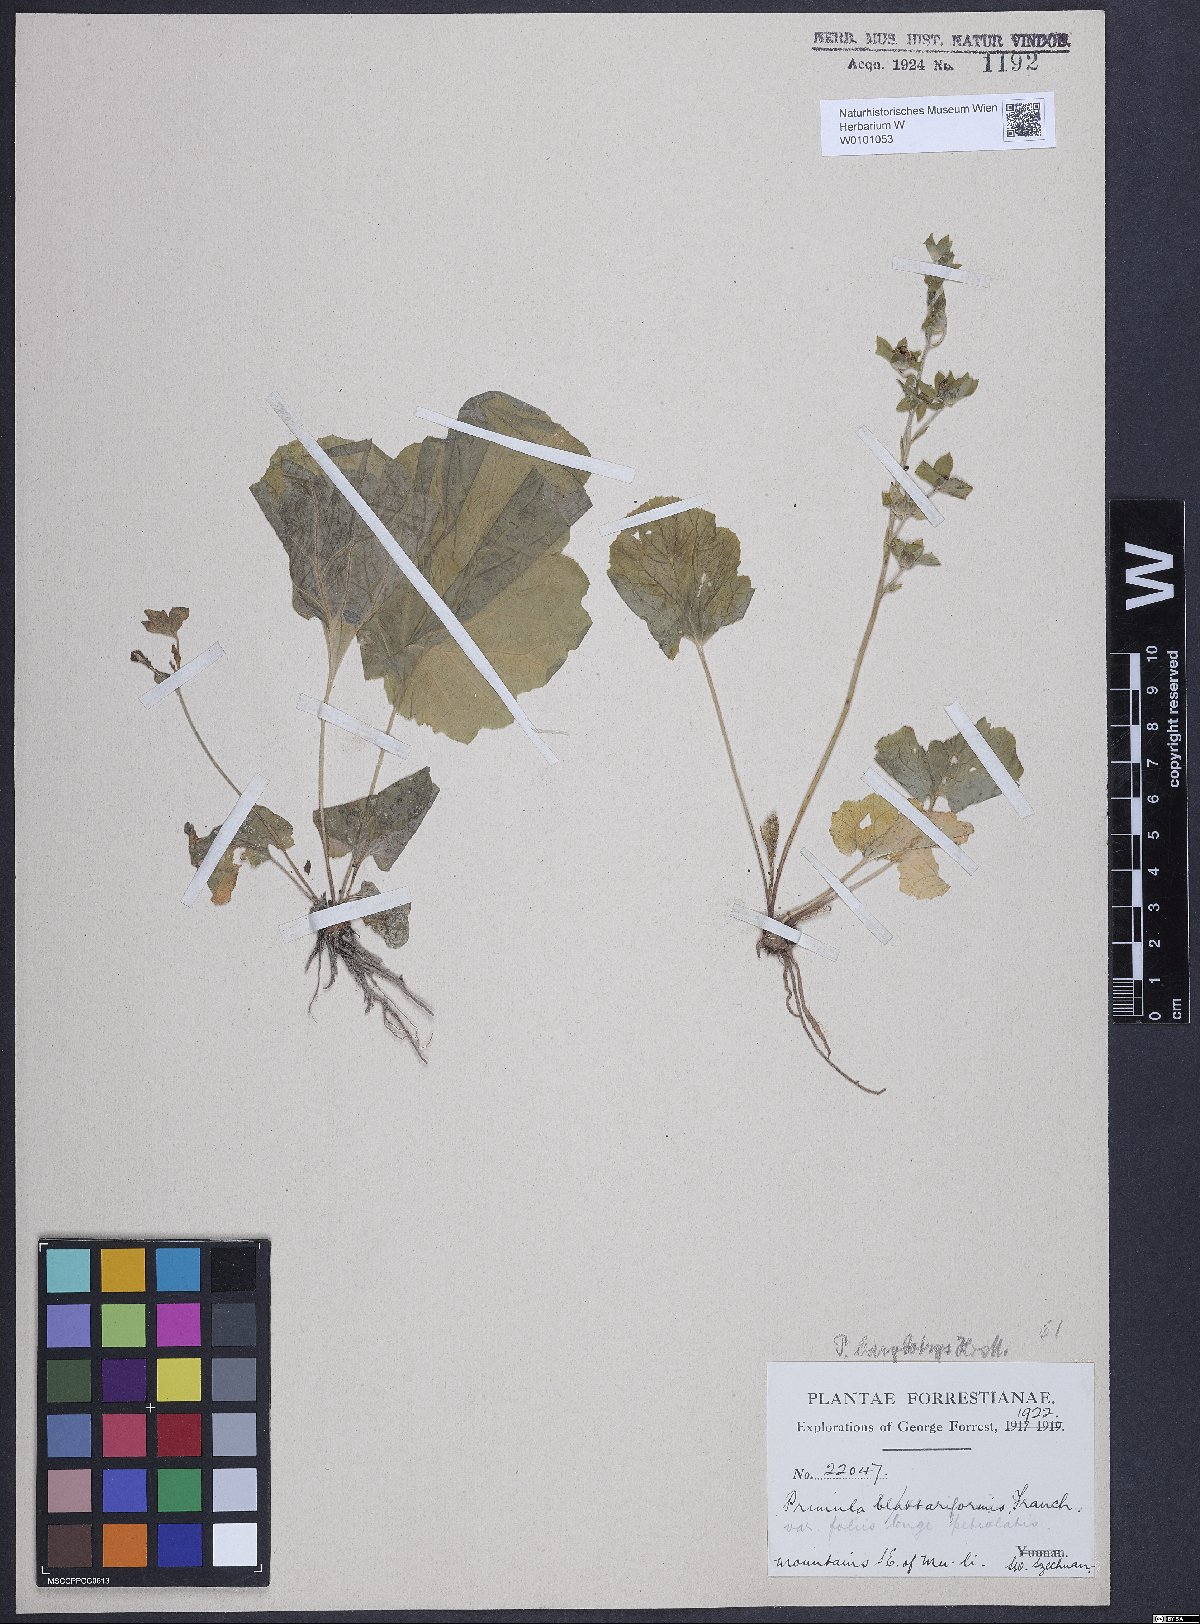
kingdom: Plantae
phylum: Tracheophyta
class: Magnoliopsida
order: Ericales
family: Primulaceae
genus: Primula
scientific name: Primula malvacea
